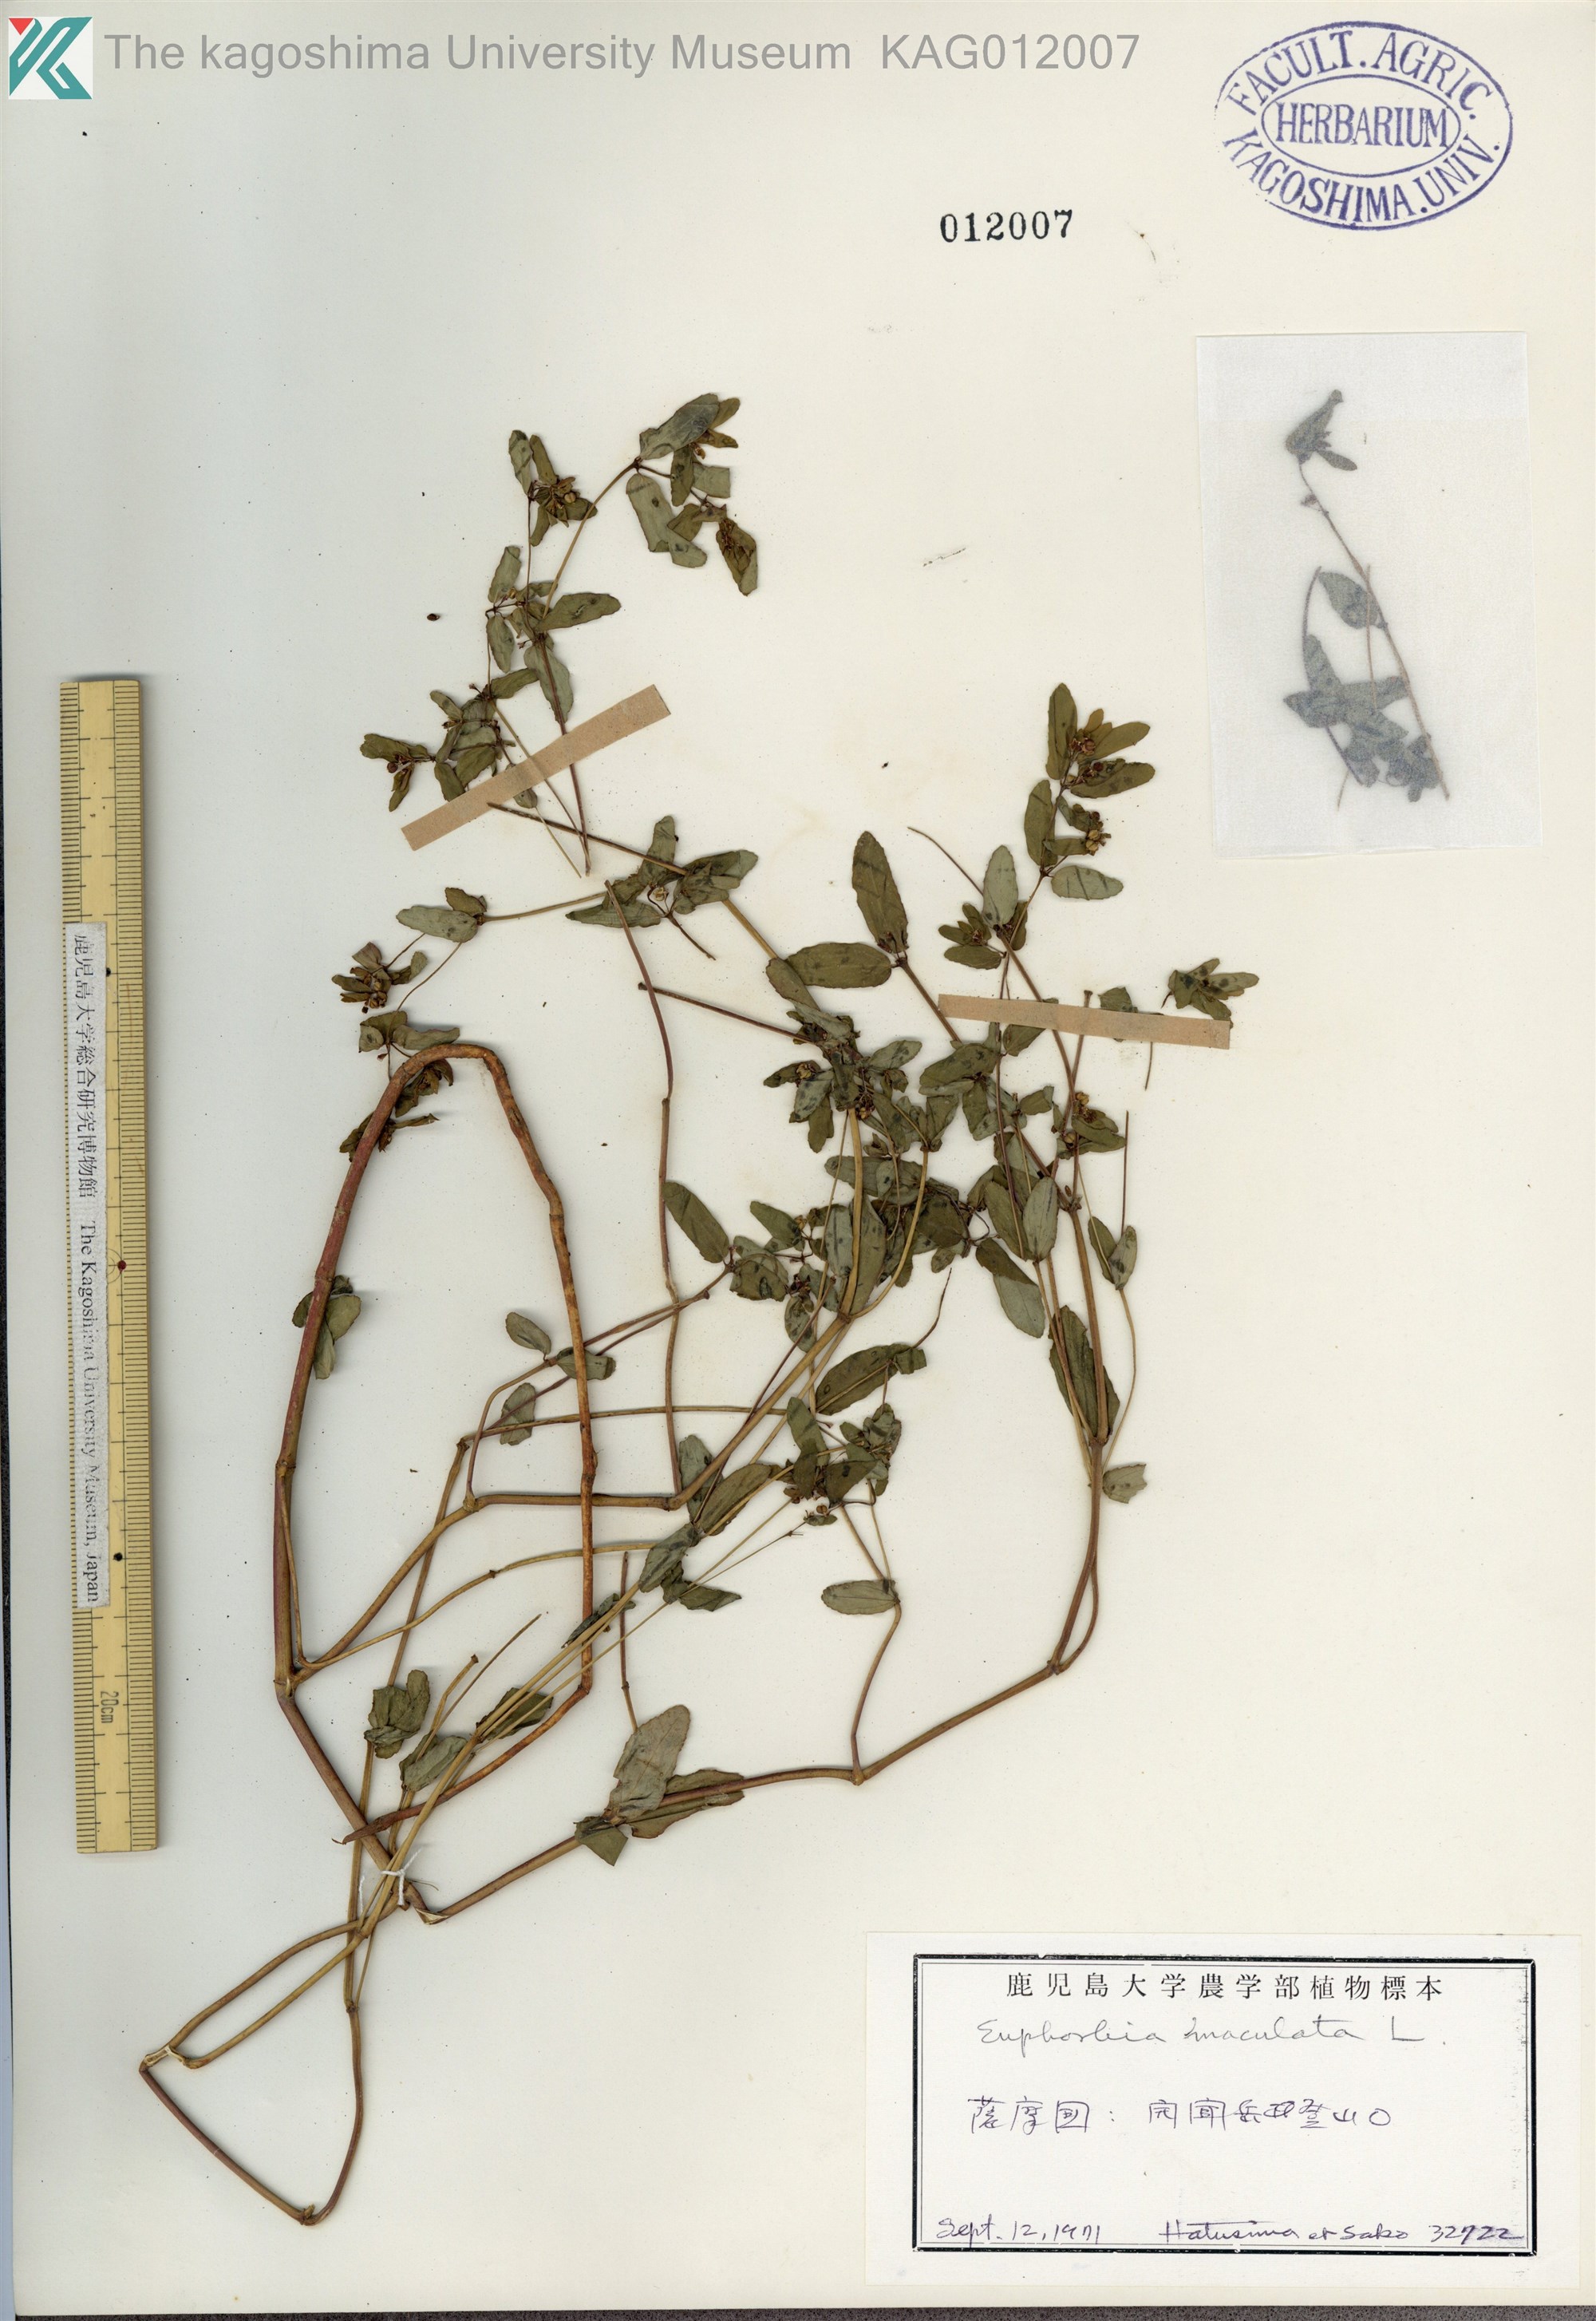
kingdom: Plantae
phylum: Tracheophyta
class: Magnoliopsida
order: Malpighiales
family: Euphorbiaceae
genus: Euphorbia
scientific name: Euphorbia hyssopifolia
